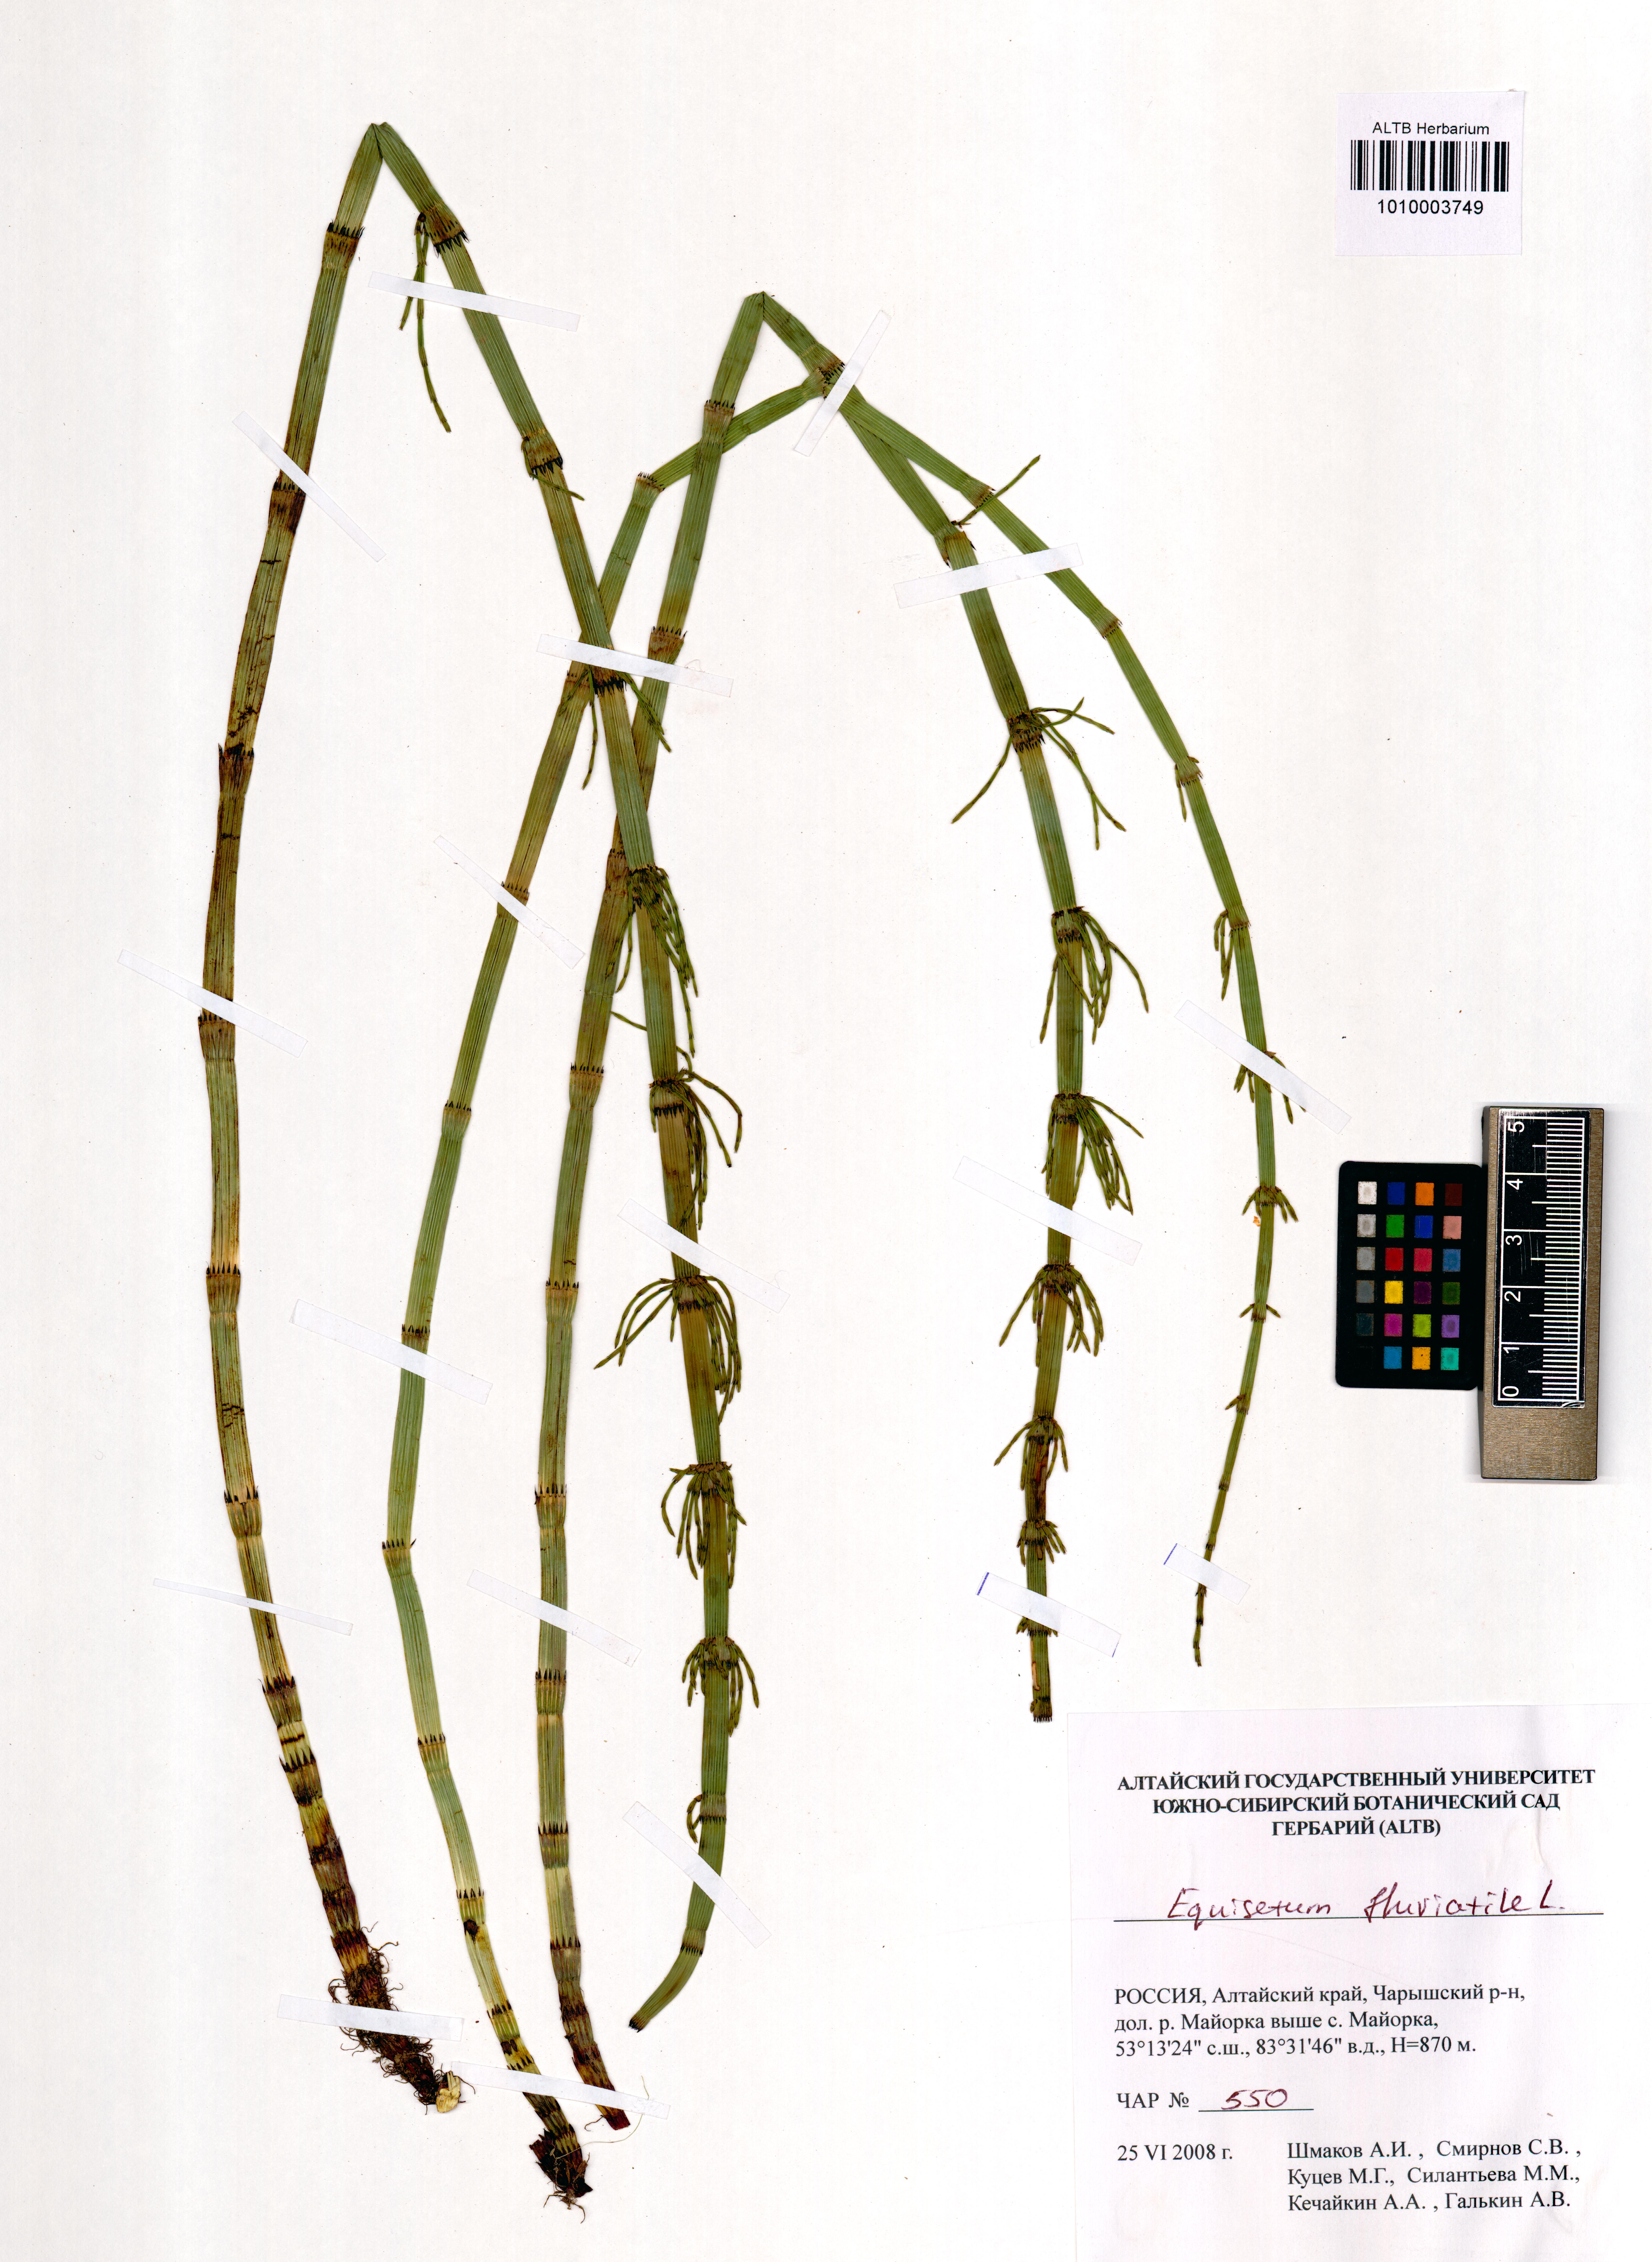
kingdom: Plantae
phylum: Tracheophyta
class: Polypodiopsida
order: Equisetales
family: Equisetaceae
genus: Equisetum
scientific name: Equisetum fluviatile
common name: Water horsetail
